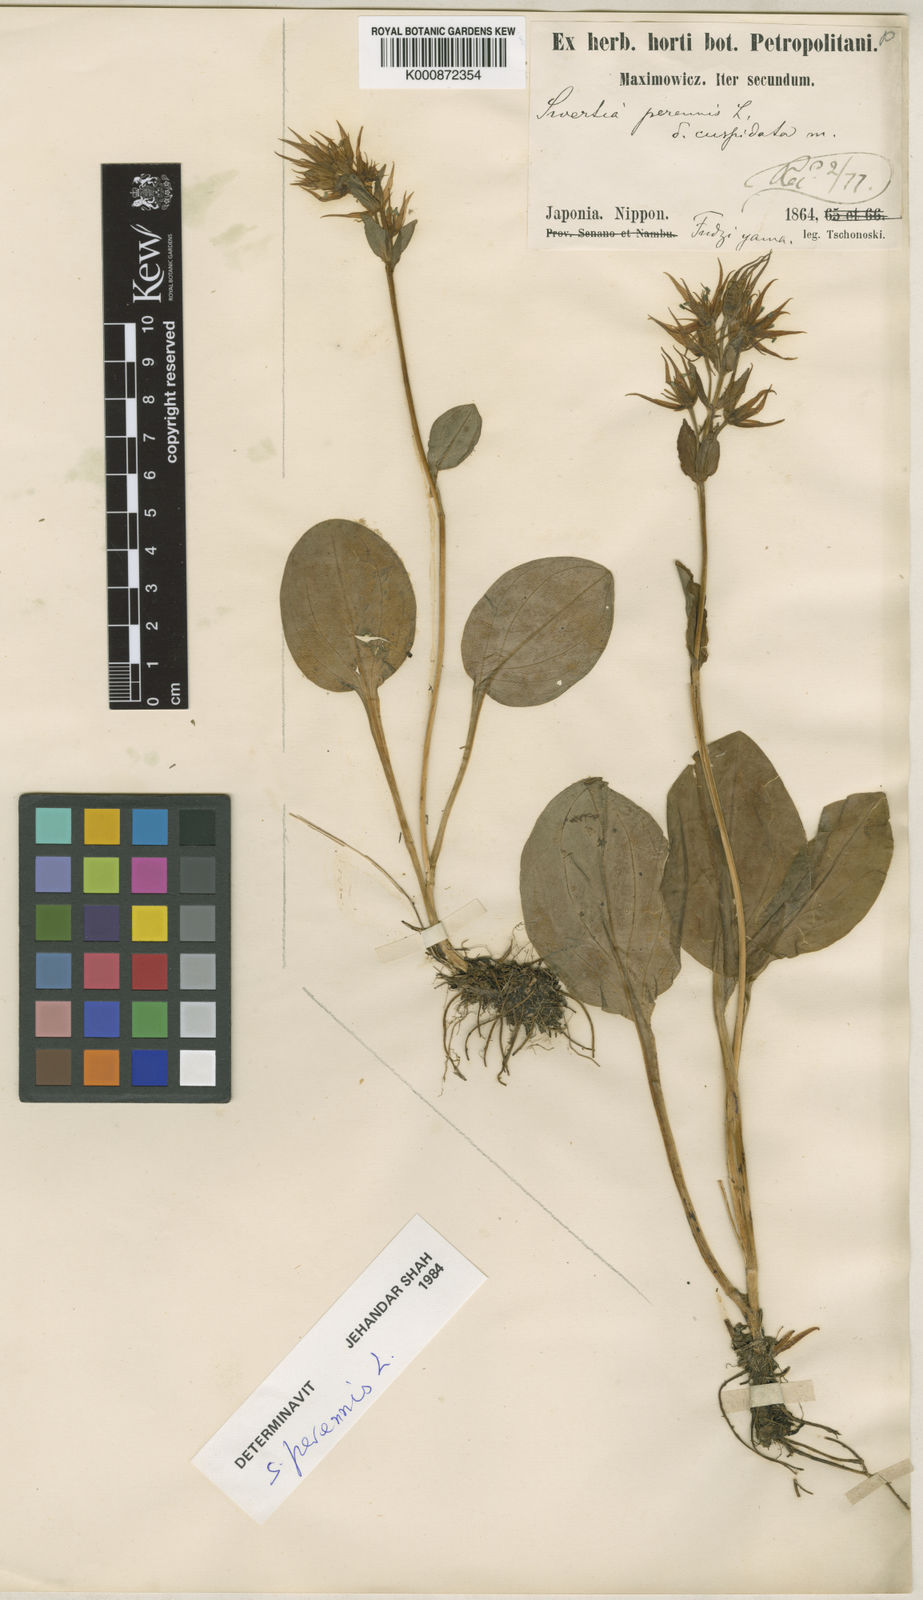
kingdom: Plantae
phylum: Tracheophyta
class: Magnoliopsida
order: Gentianales
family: Gentianaceae
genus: Swertia
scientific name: Swertia perennis
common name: Alpine bog swertia
